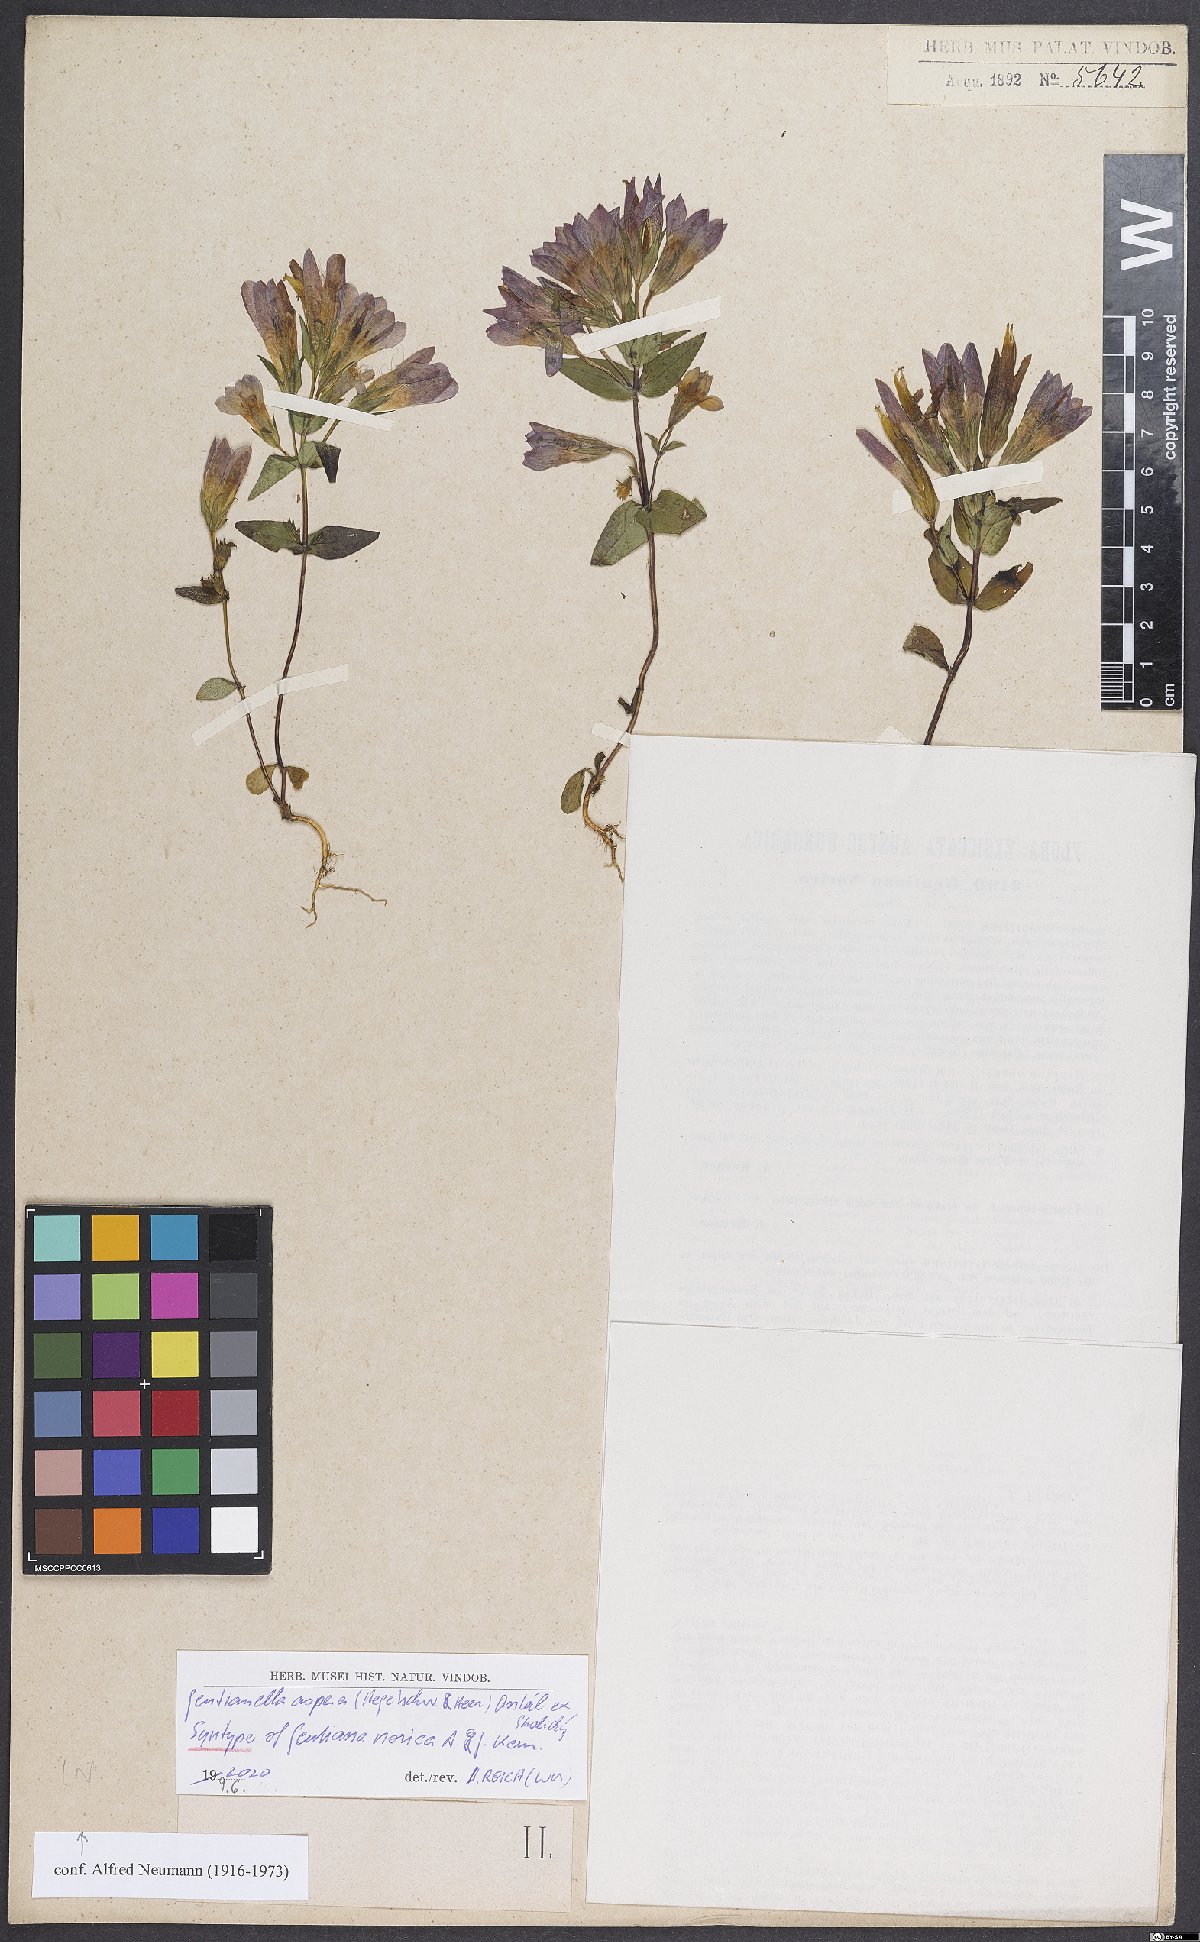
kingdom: Plantae
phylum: Tracheophyta
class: Magnoliopsida
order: Gentianales
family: Gentianaceae
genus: Gentianella
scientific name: Gentianella obtusifolia
